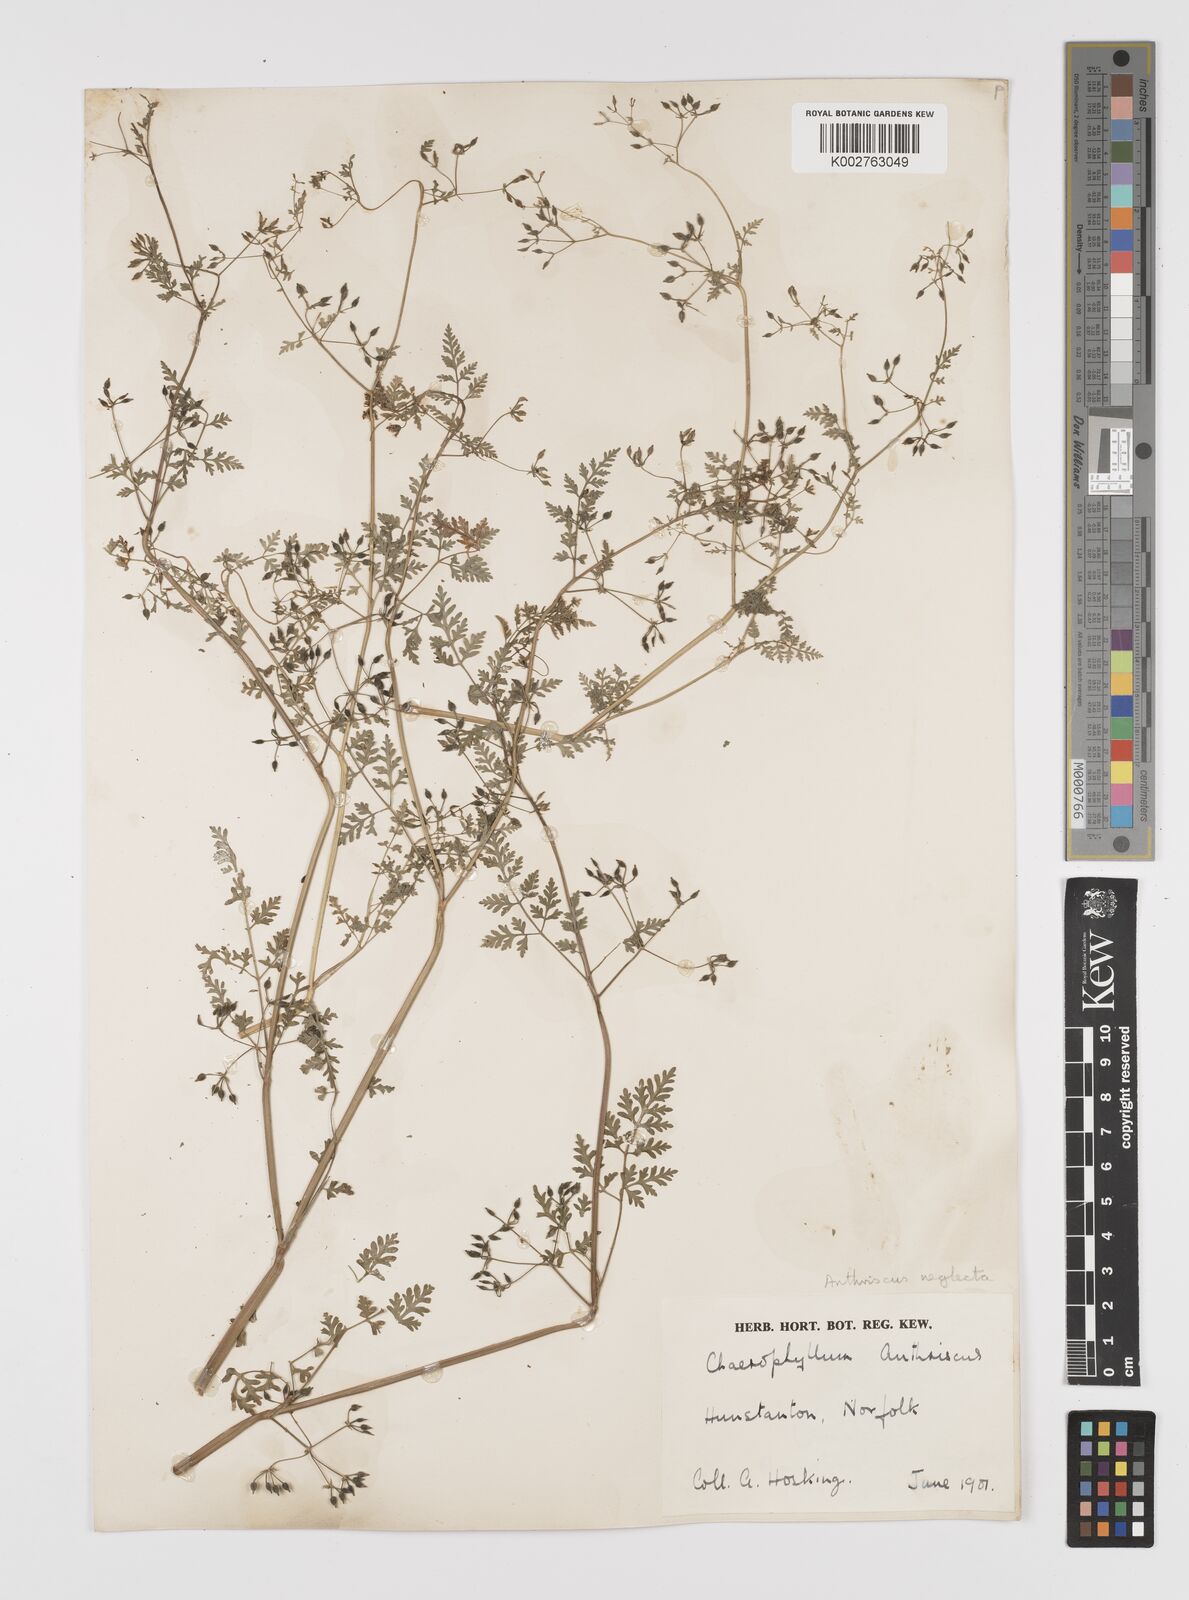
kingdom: Plantae
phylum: Tracheophyta
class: Magnoliopsida
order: Apiales
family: Apiaceae
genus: Anthriscus
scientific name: Anthriscus caucalis
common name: Bur chervil
